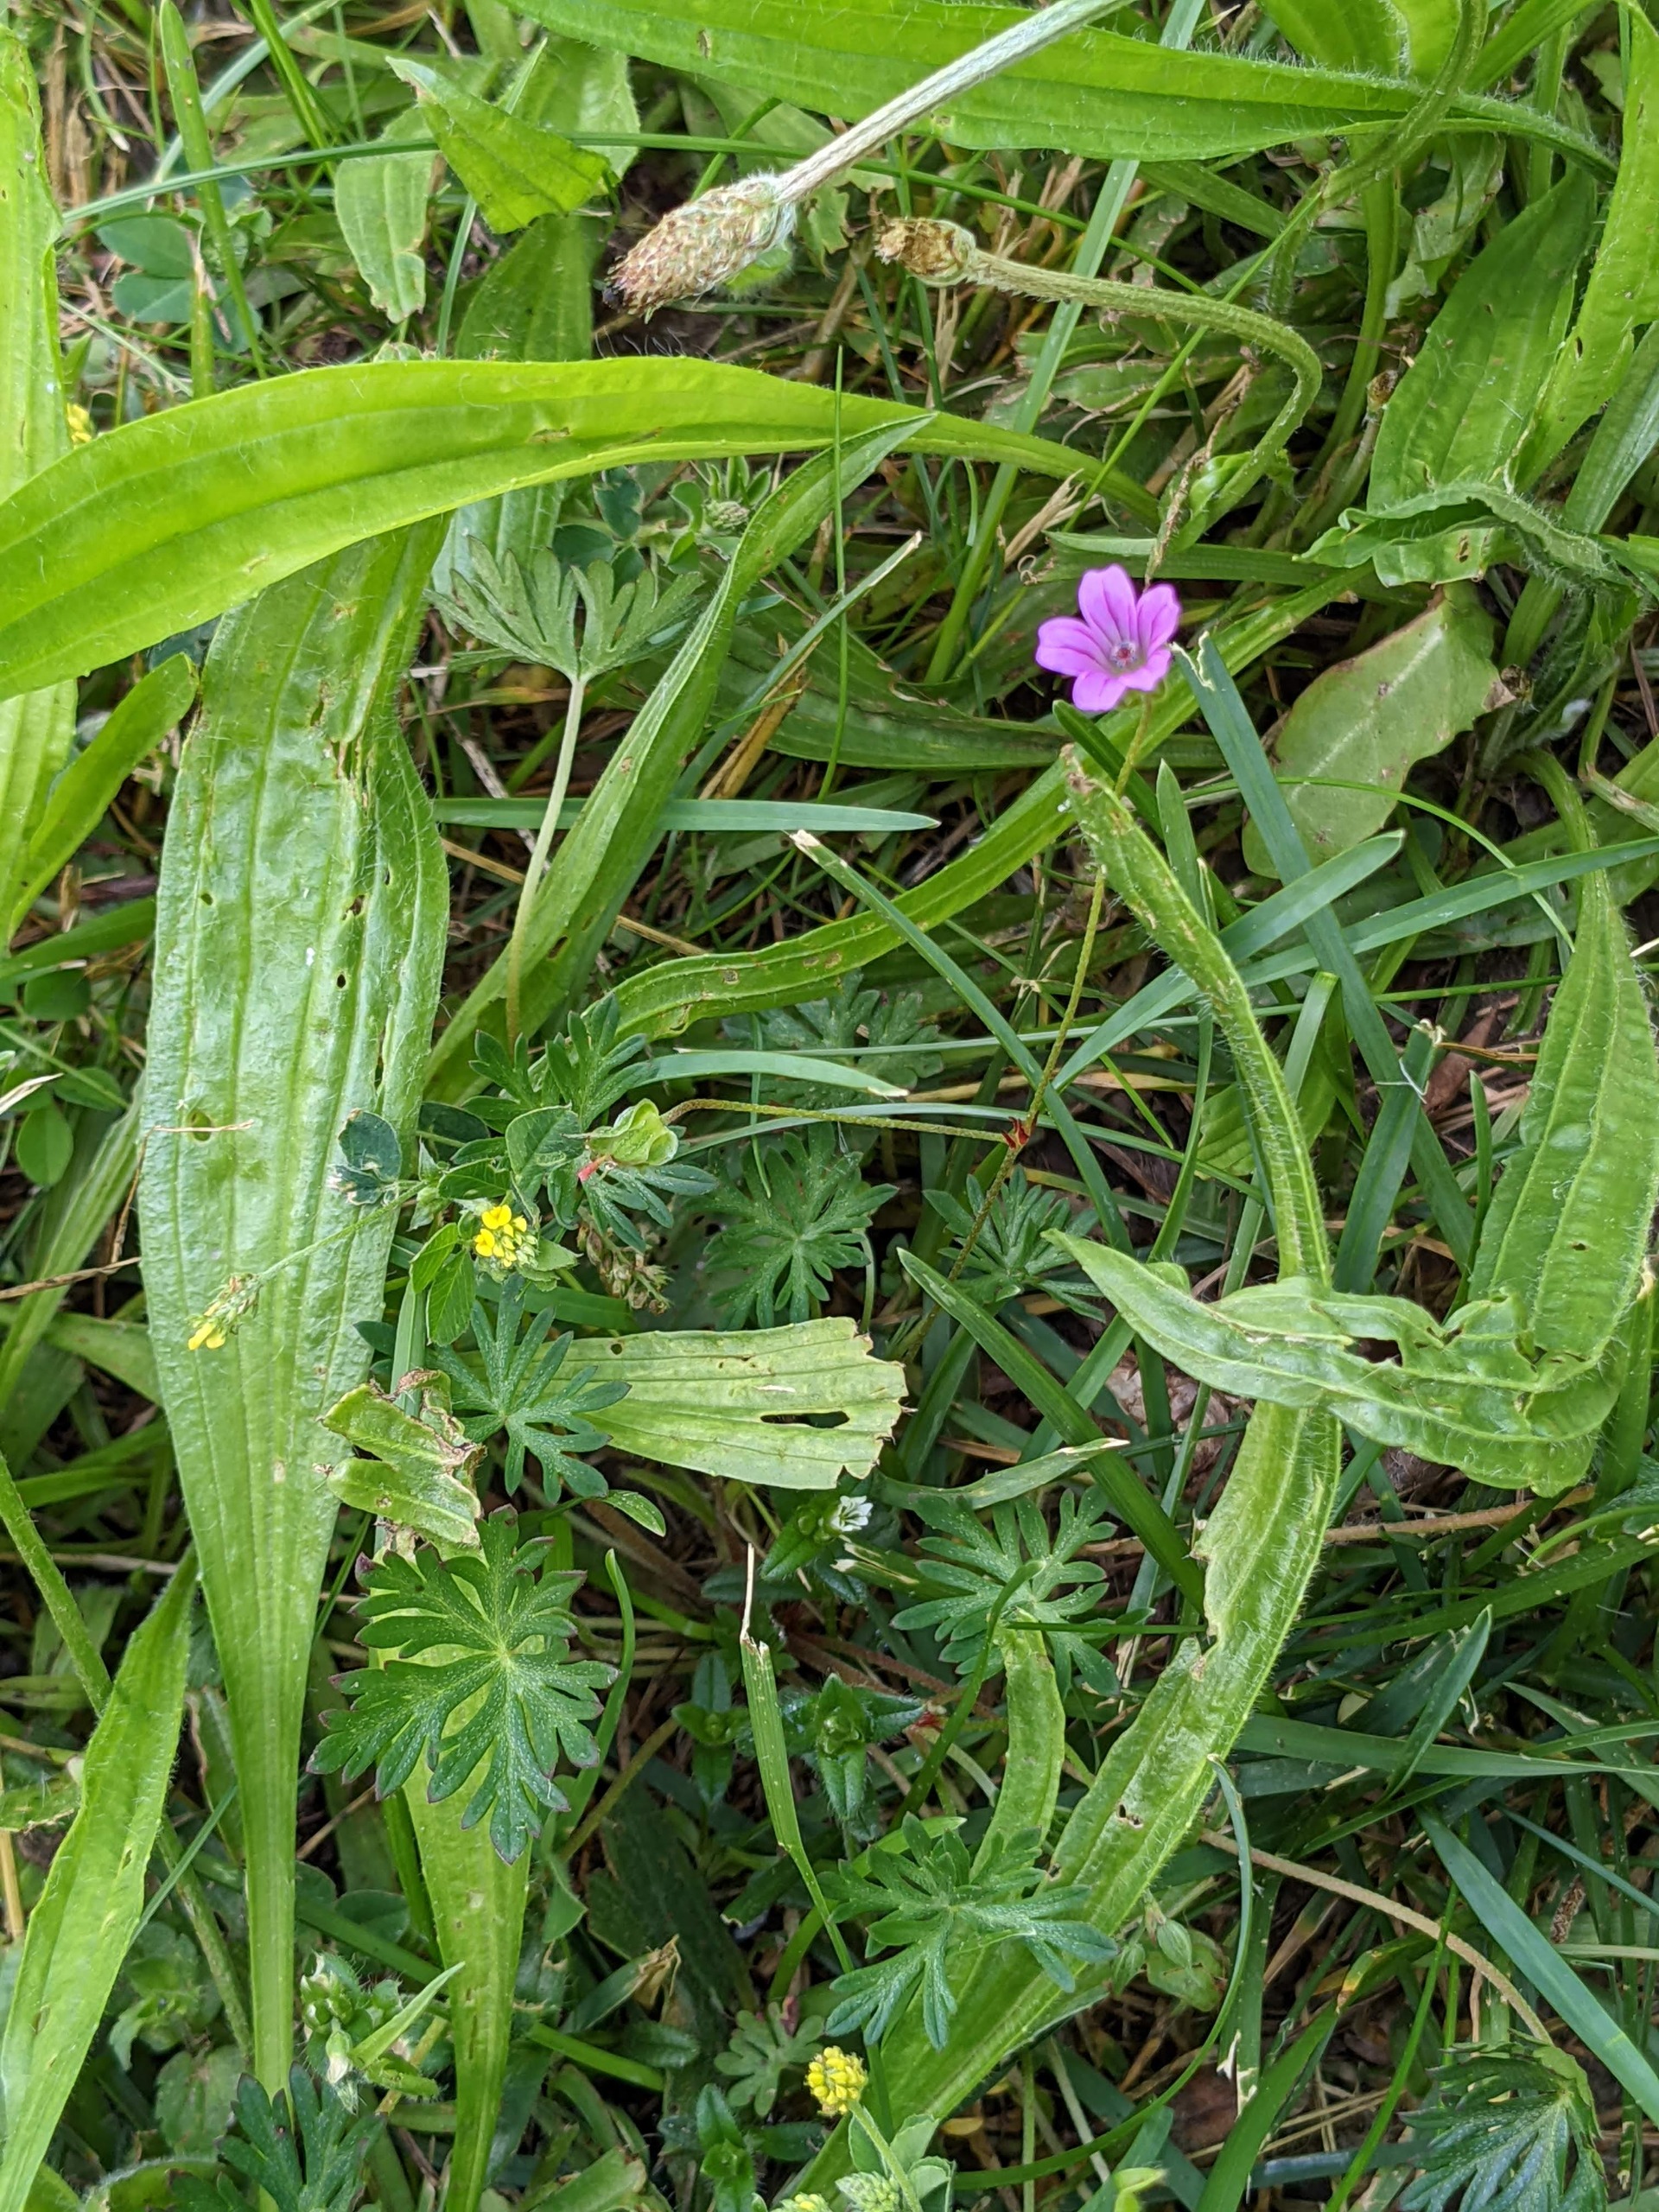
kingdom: Plantae
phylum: Tracheophyta
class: Magnoliopsida
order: Geraniales
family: Geraniaceae
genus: Geranium
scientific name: Geranium columbinum
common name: Storbægret storkenæb
